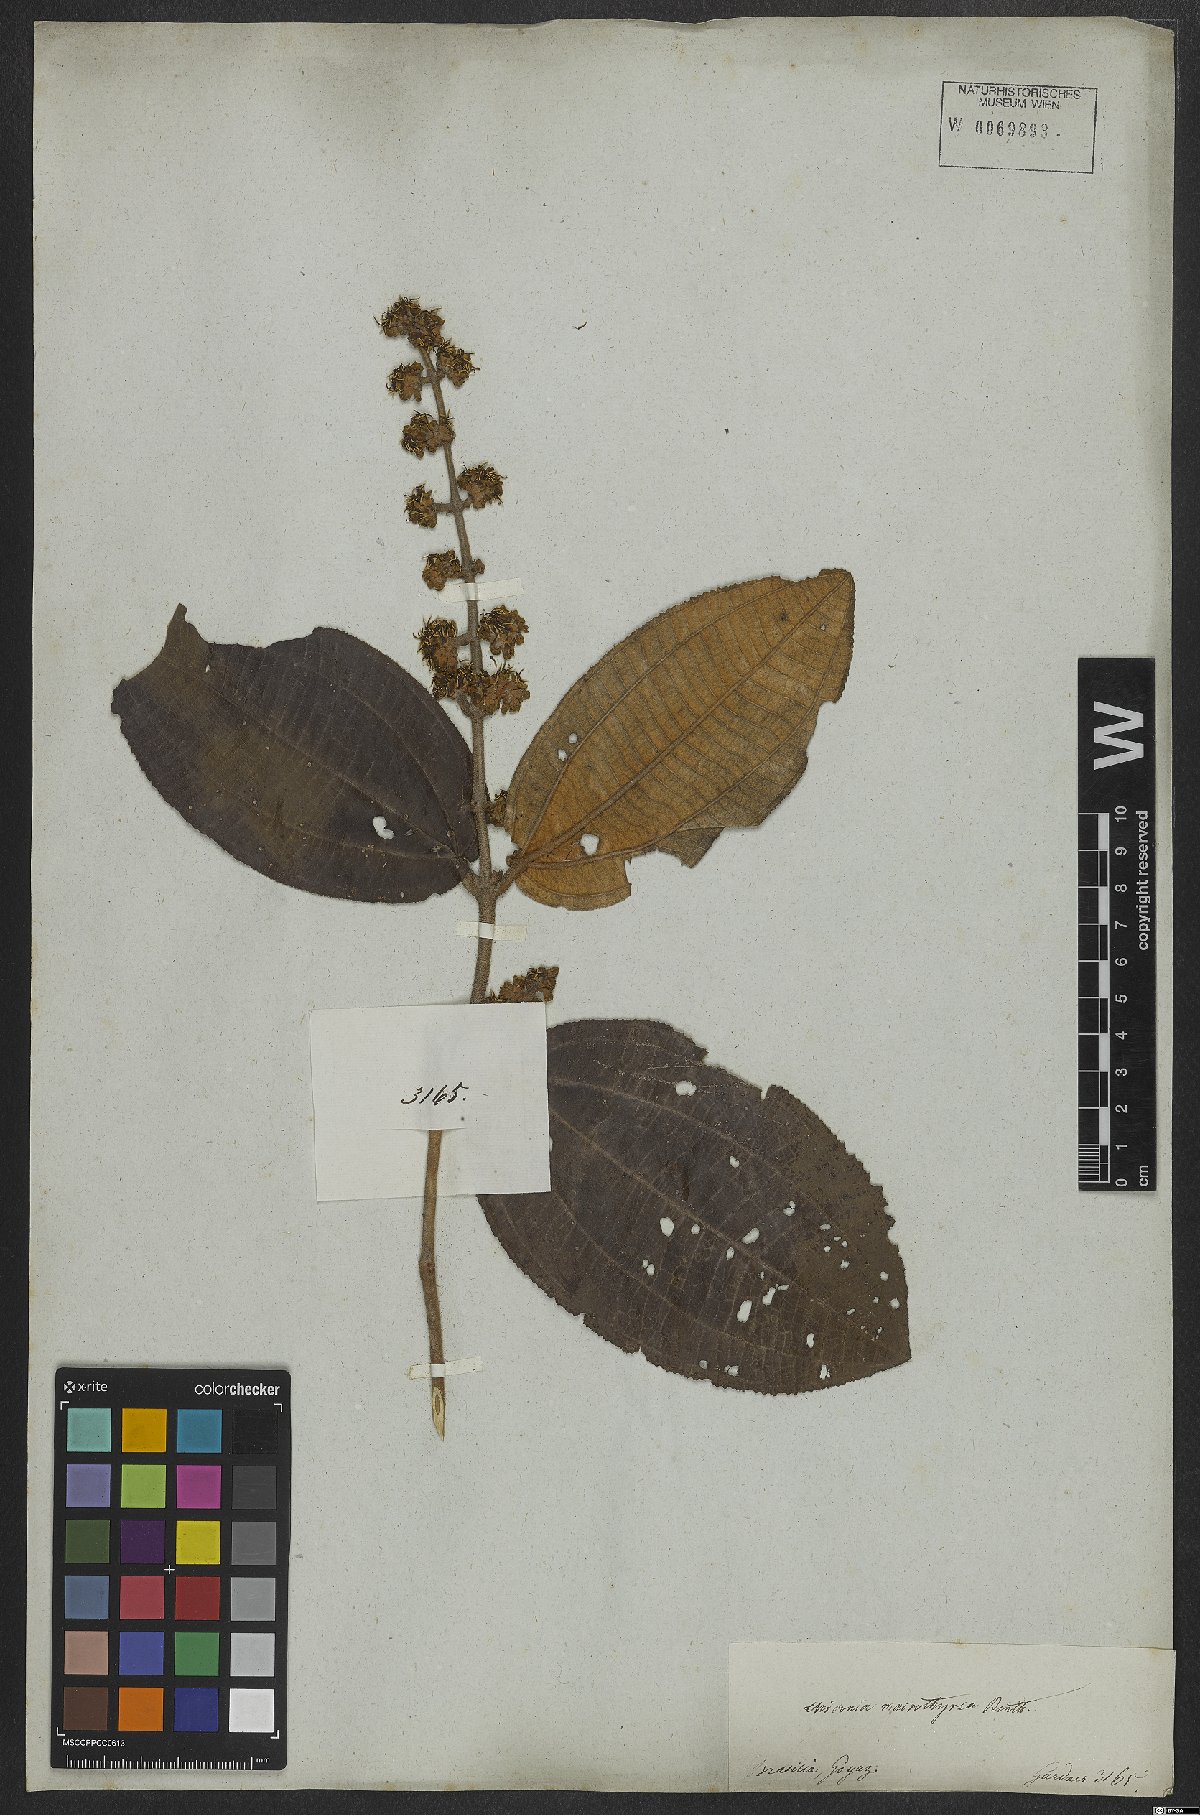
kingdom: Plantae
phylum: Tracheophyta
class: Magnoliopsida
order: Myrtales
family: Melastomataceae
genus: Miconia
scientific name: Miconia aplostachya
